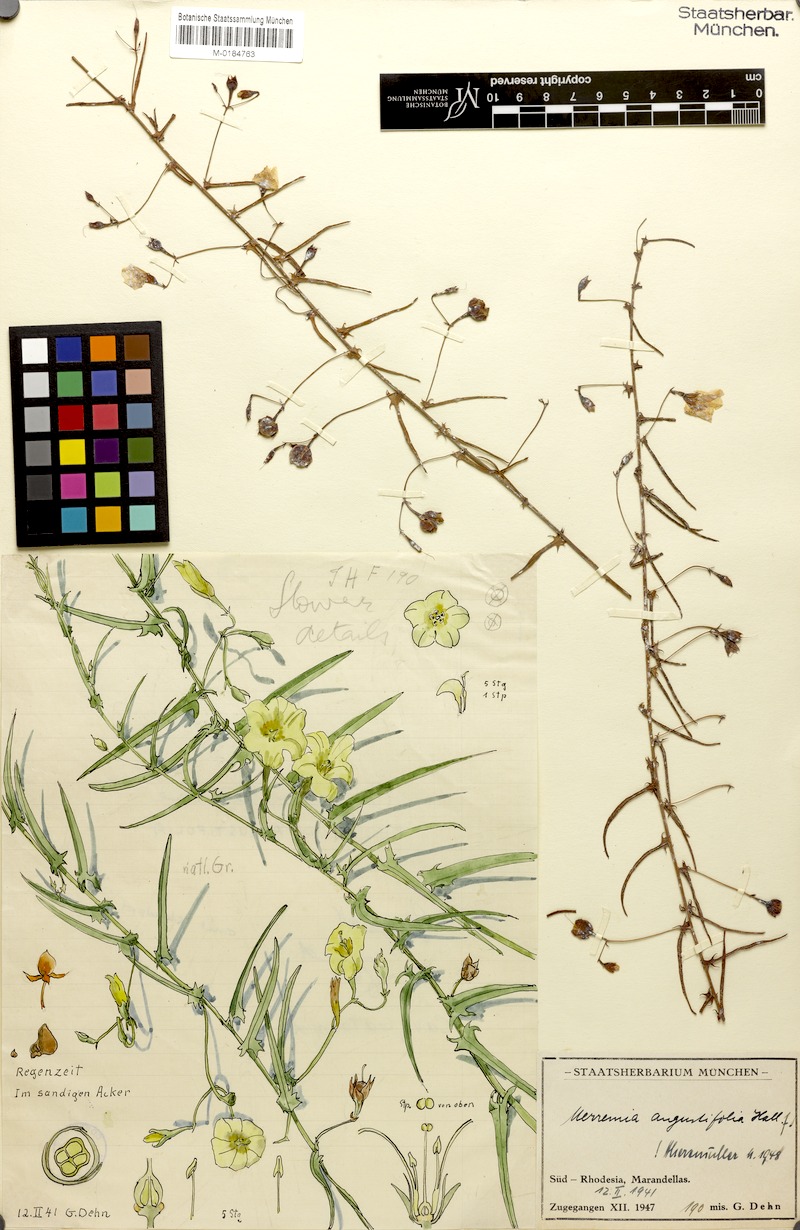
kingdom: Plantae
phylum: Tracheophyta
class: Magnoliopsida
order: Solanales
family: Convolvulaceae
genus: Xenostegia
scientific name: Xenostegia tridentata
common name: African morningvine
